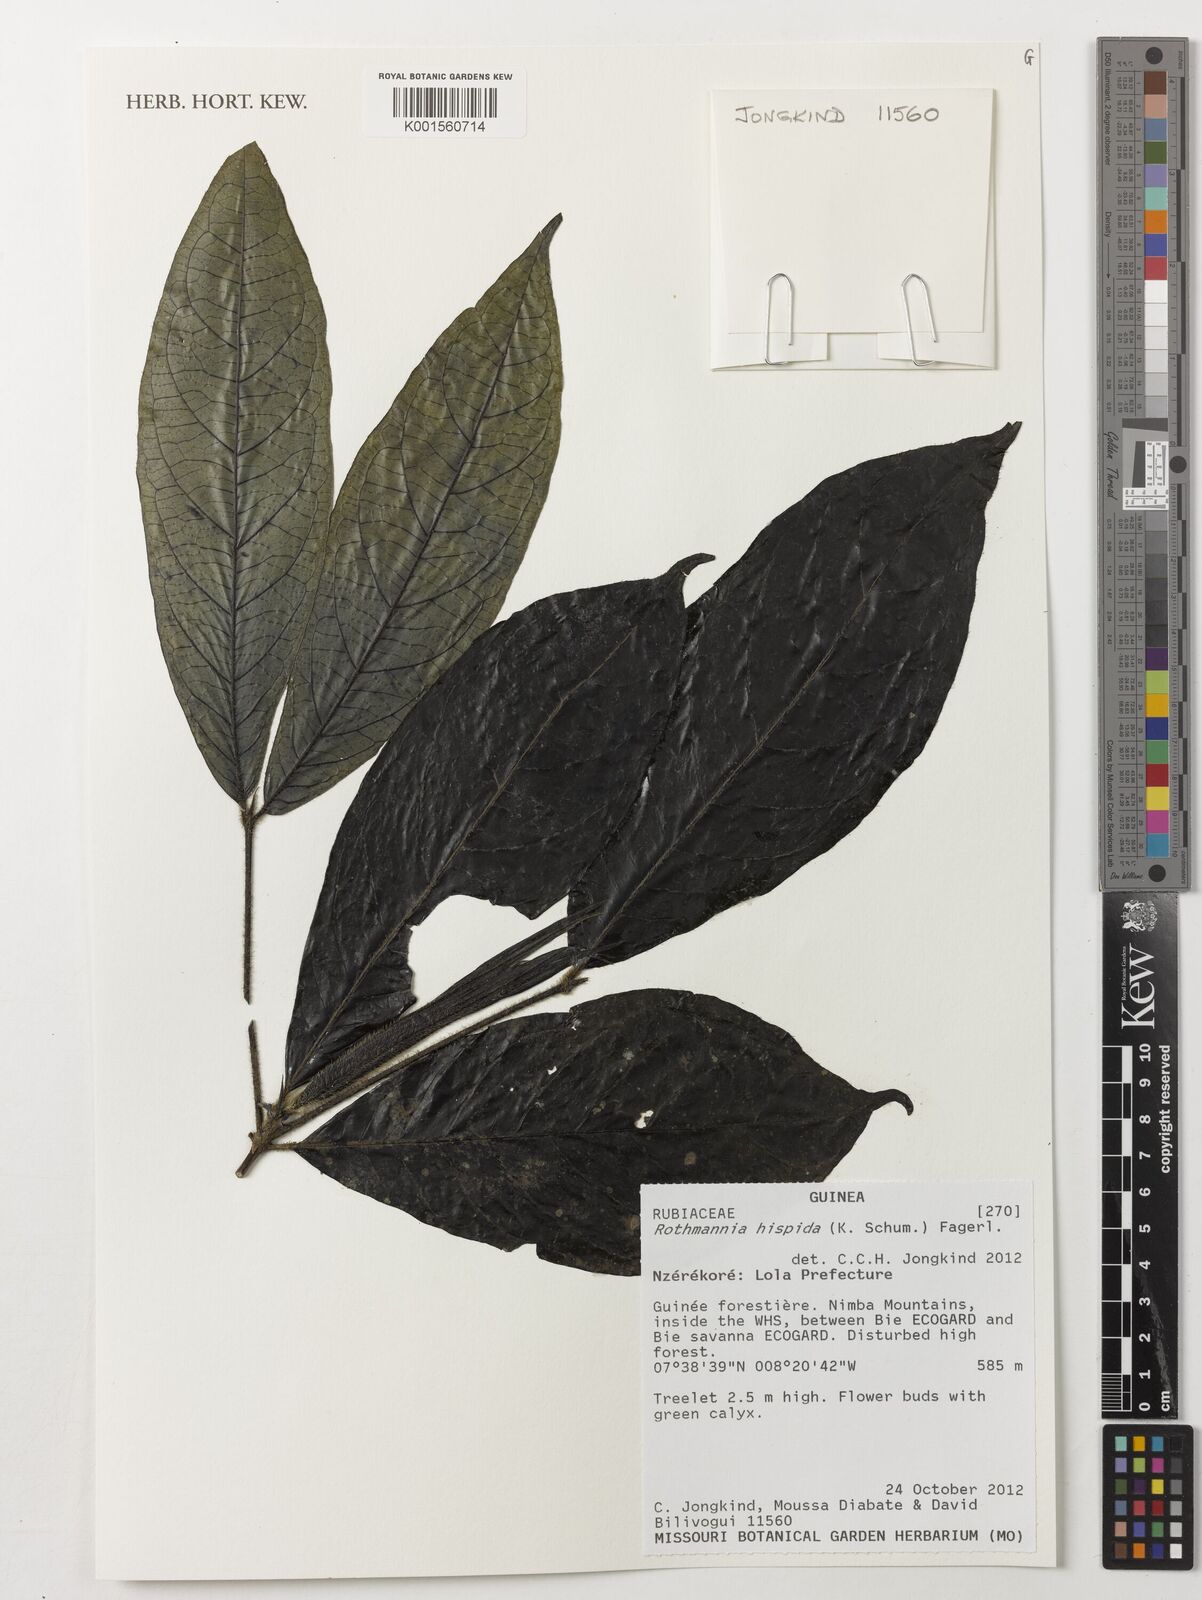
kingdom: Plantae
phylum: Tracheophyta
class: Magnoliopsida
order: Gentianales
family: Rubiaceae
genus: Rothmannia
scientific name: Rothmannia hispida
